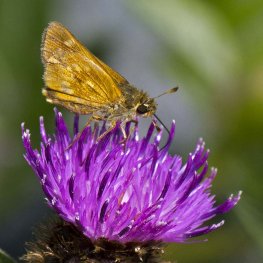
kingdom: Animalia
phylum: Arthropoda
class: Insecta
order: Lepidoptera
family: Hesperiidae
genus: Polites
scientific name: Polites
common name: Long Dash Skipper
